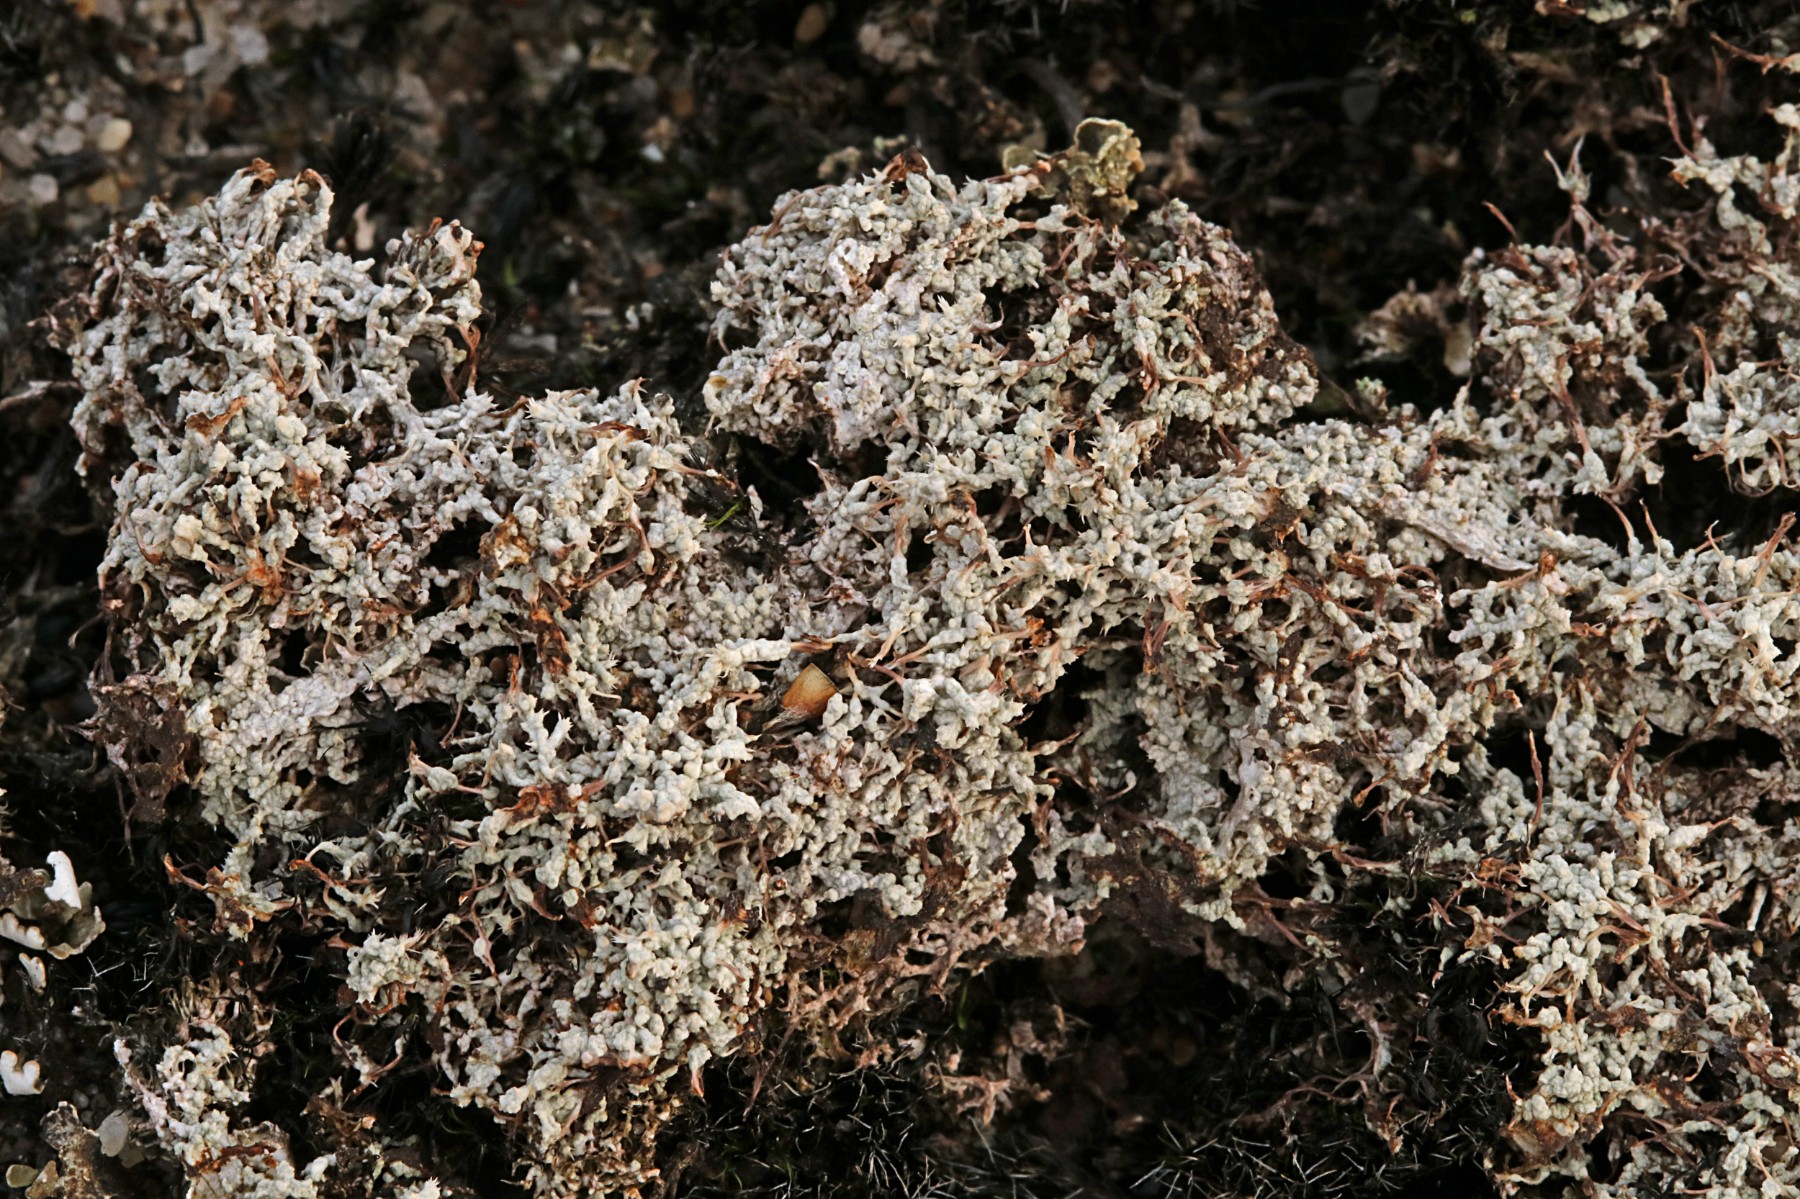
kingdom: Fungi
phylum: Ascomycota
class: Lecanoromycetes
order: Pertusariales
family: Ochrolechiaceae
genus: Ochrolechia
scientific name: Ochrolechia frigida
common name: fjeld-blegskivelav
